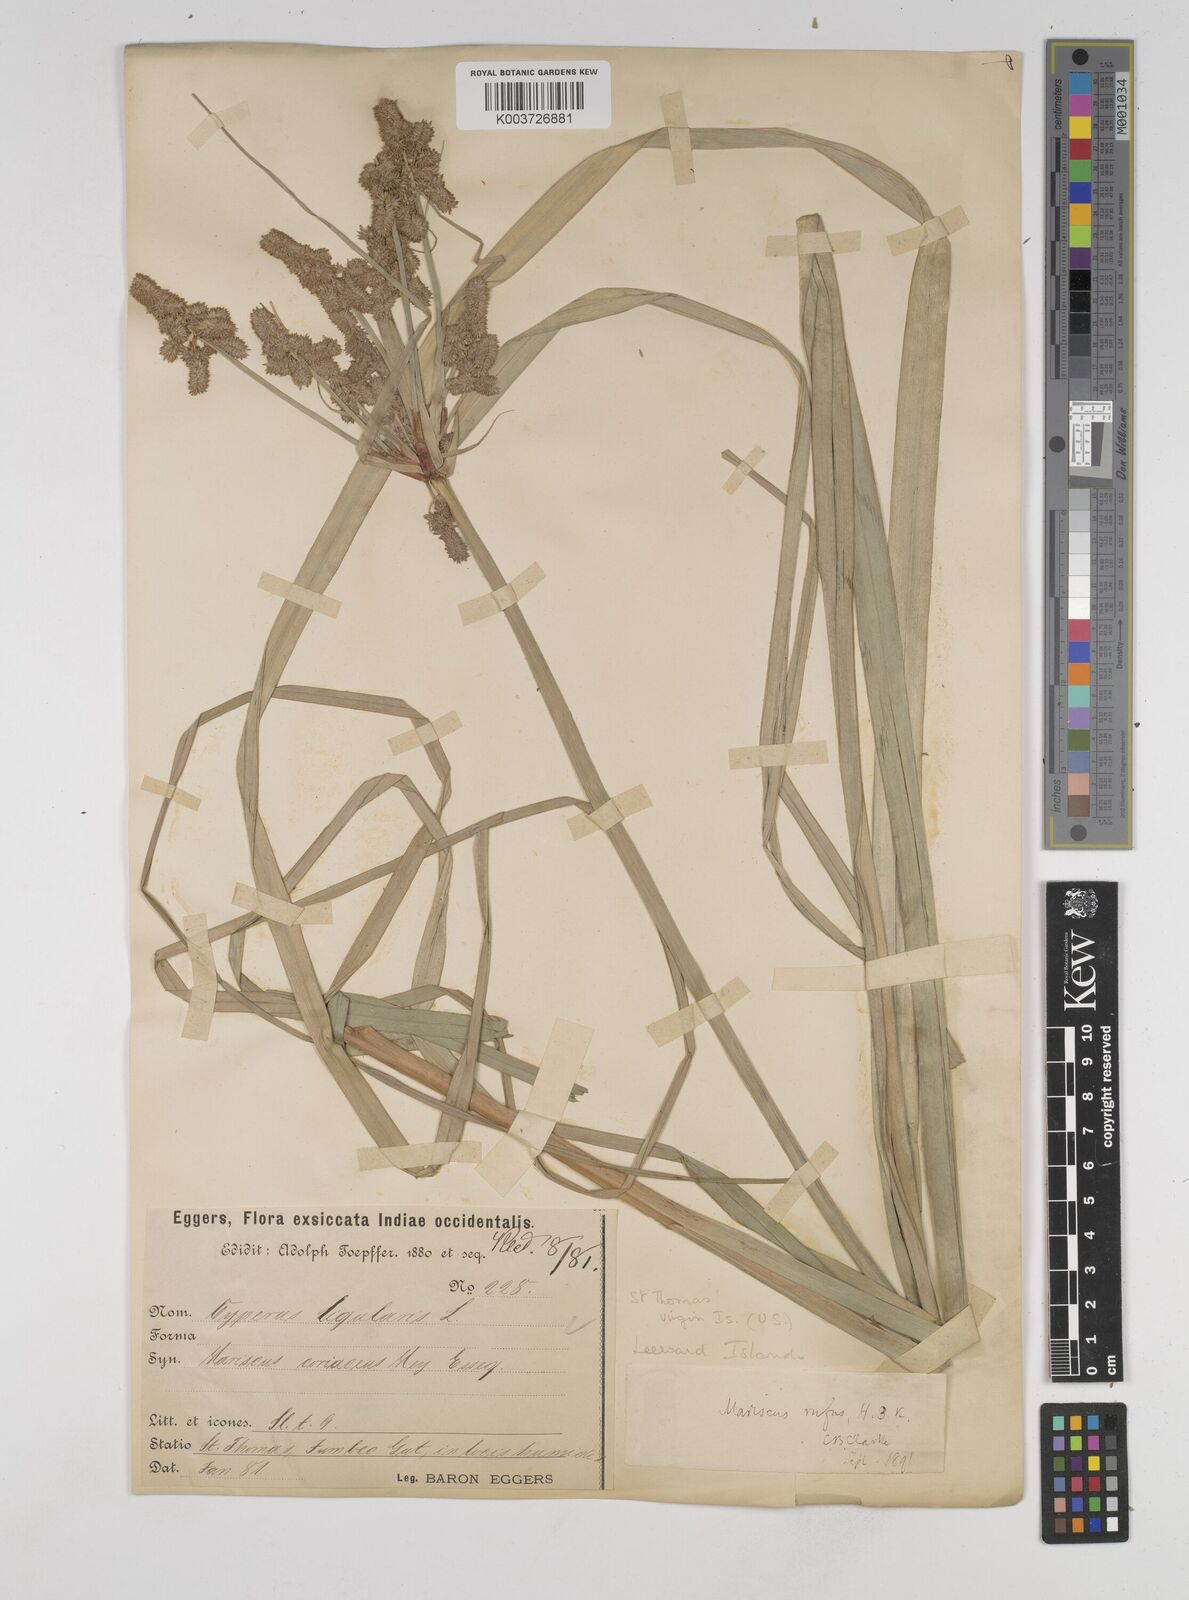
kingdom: Plantae
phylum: Tracheophyta
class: Liliopsida
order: Poales
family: Cyperaceae
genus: Cyperus
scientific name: Cyperus ligularis
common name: Swamp flat sedge
